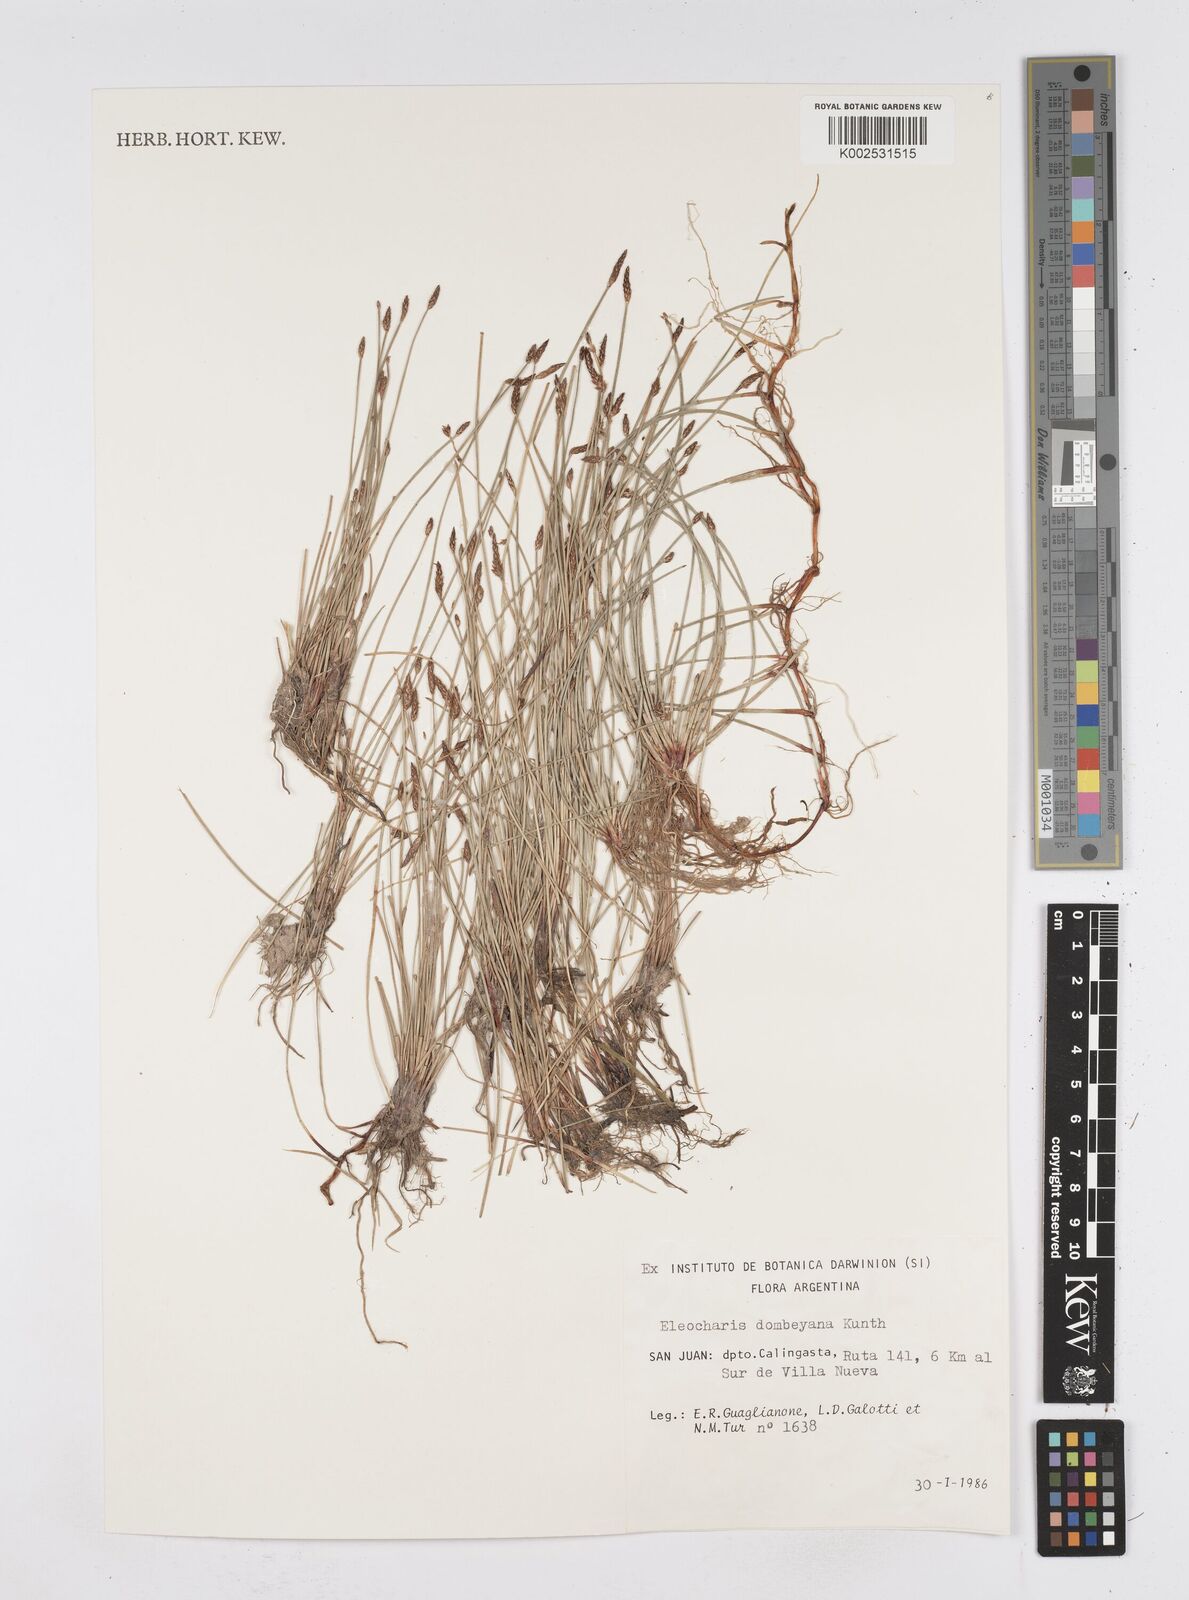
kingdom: Plantae
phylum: Tracheophyta
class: Liliopsida
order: Poales
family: Cyperaceae
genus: Eleocharis
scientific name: Eleocharis dombeyana
